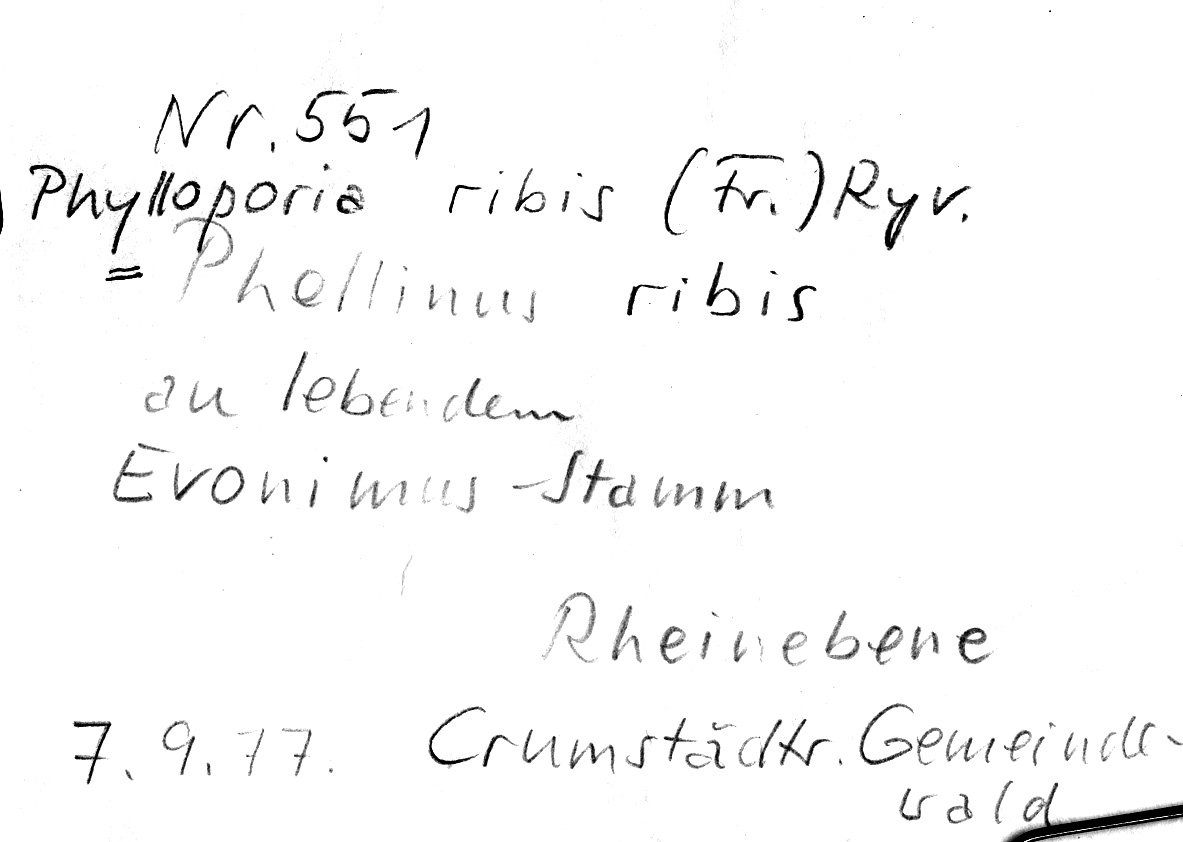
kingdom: Plantae
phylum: Tracheophyta
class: Magnoliopsida
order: Celastrales
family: Celastraceae
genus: Euonymus
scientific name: Euonymus
